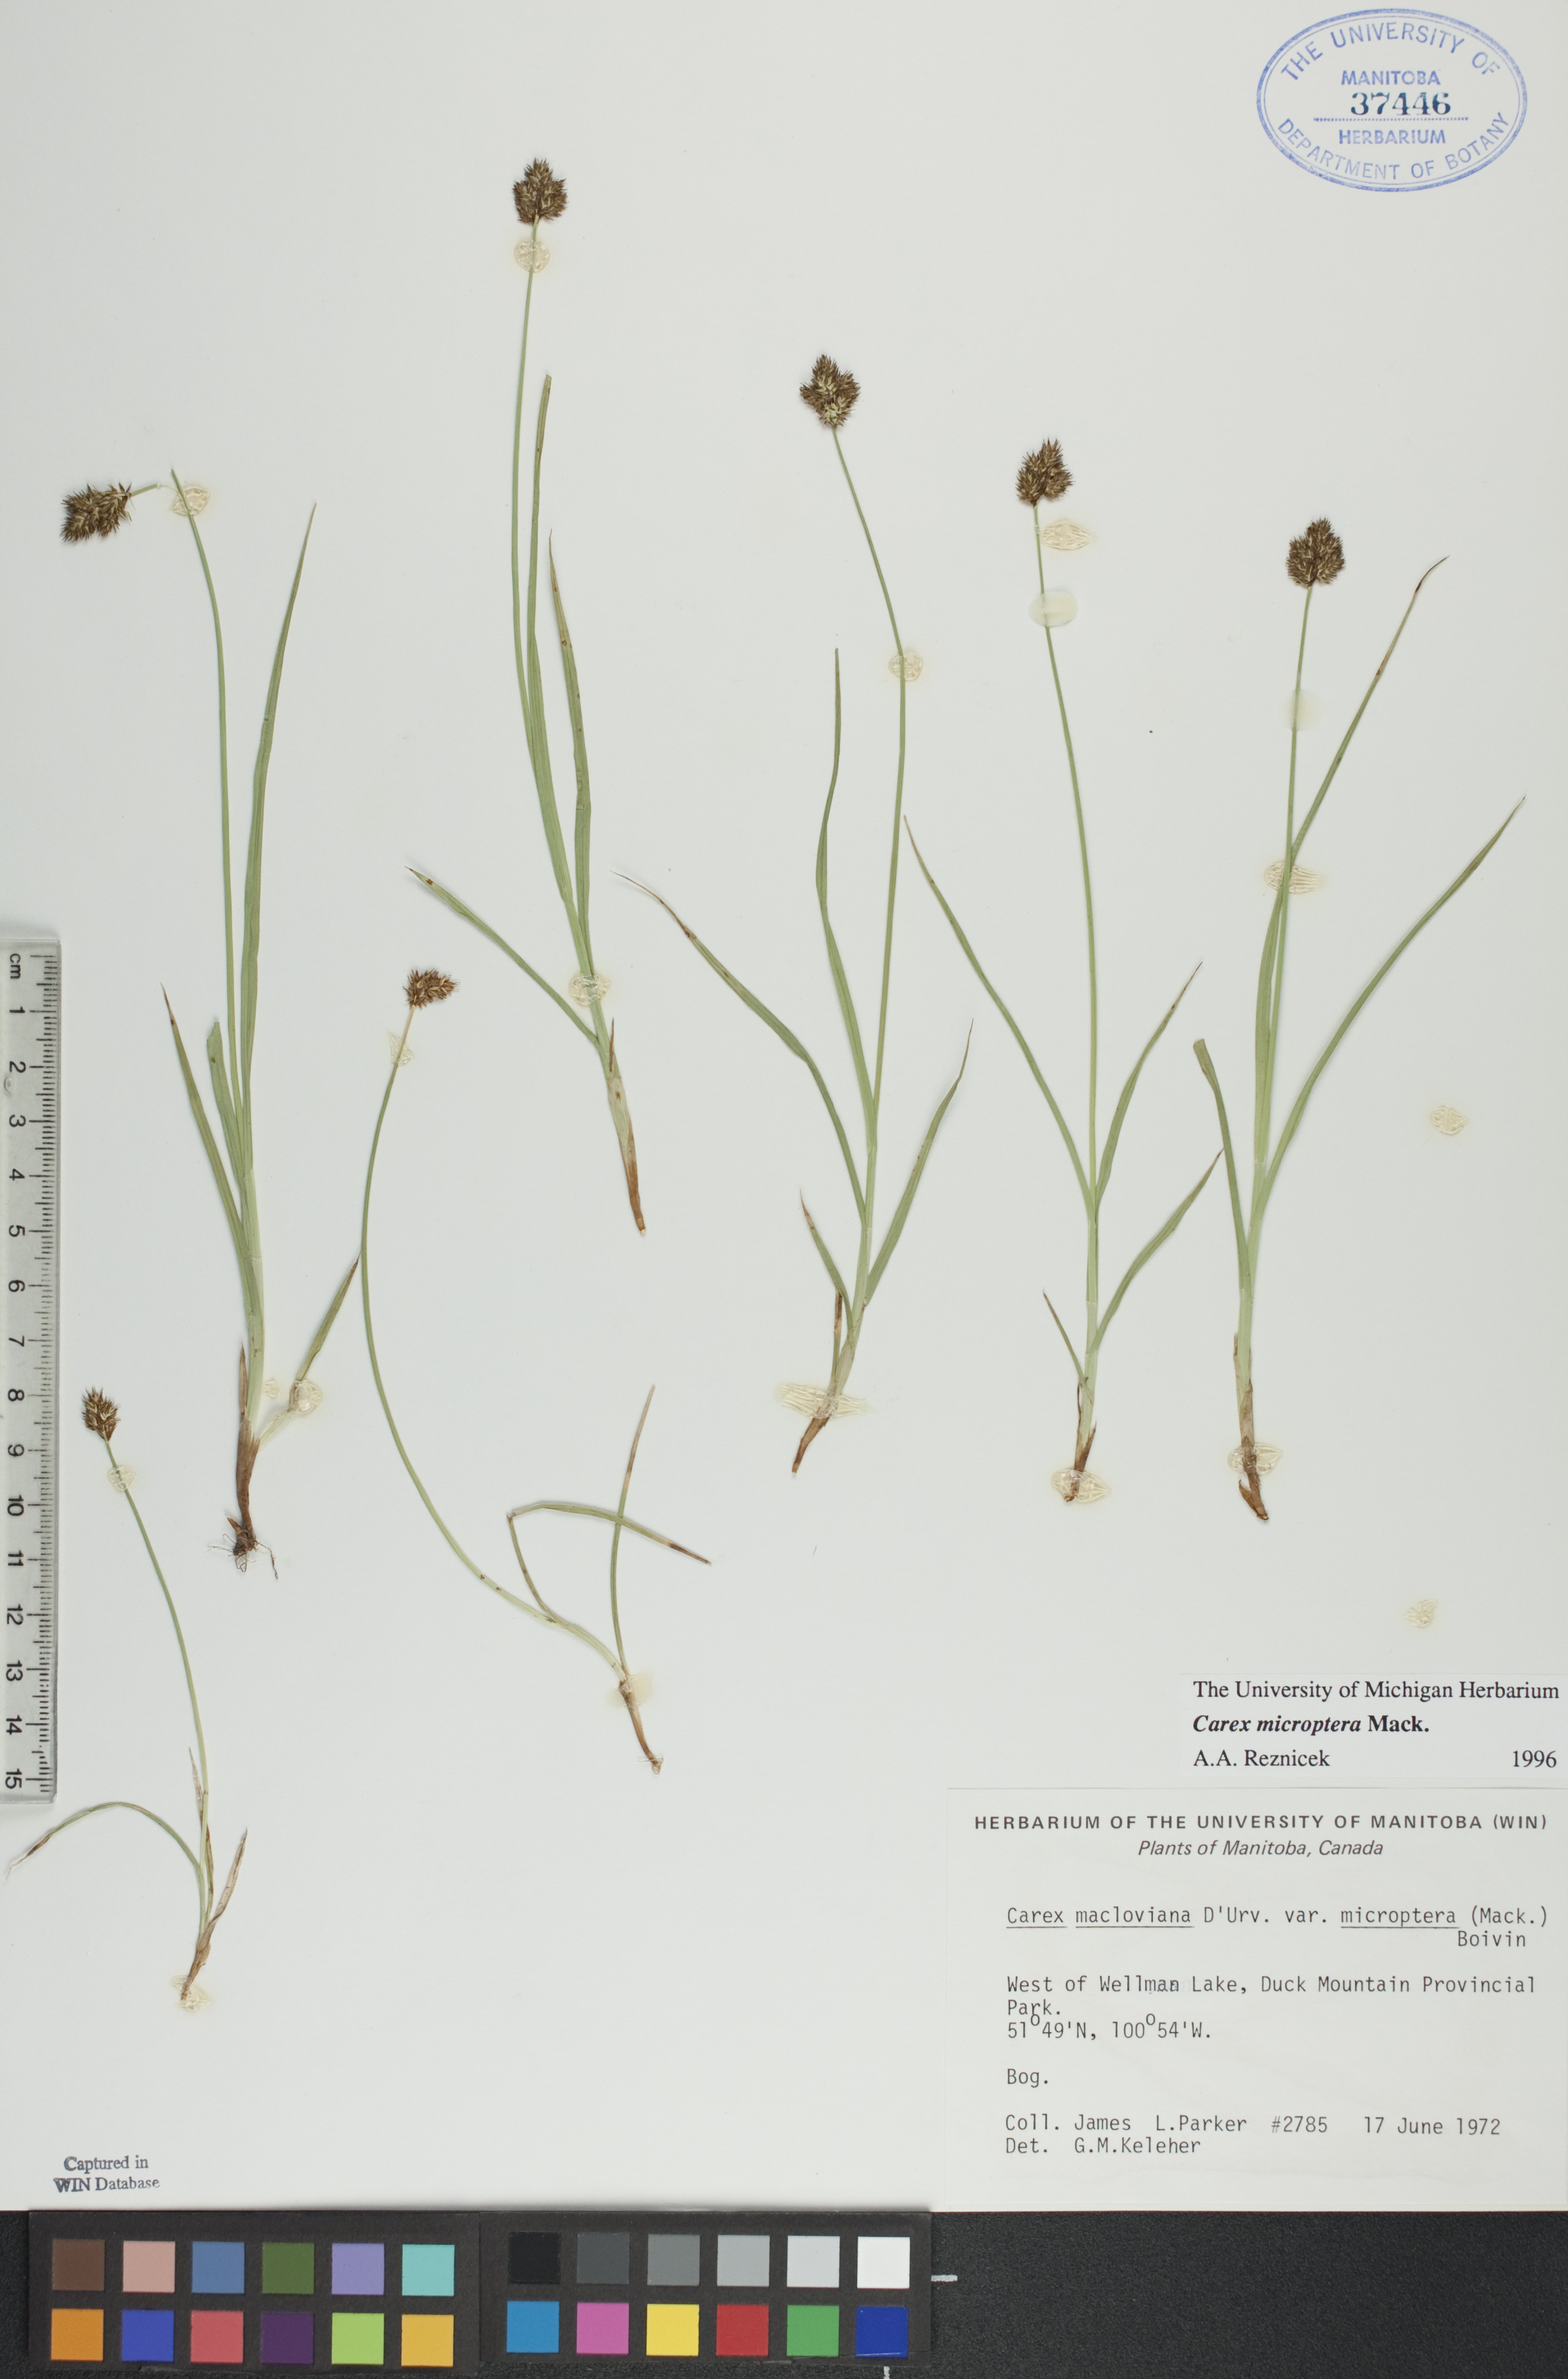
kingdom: Plantae
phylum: Tracheophyta
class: Liliopsida
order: Poales
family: Cyperaceae
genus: Carex
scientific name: Carex microptera
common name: Oval-headed sedge
